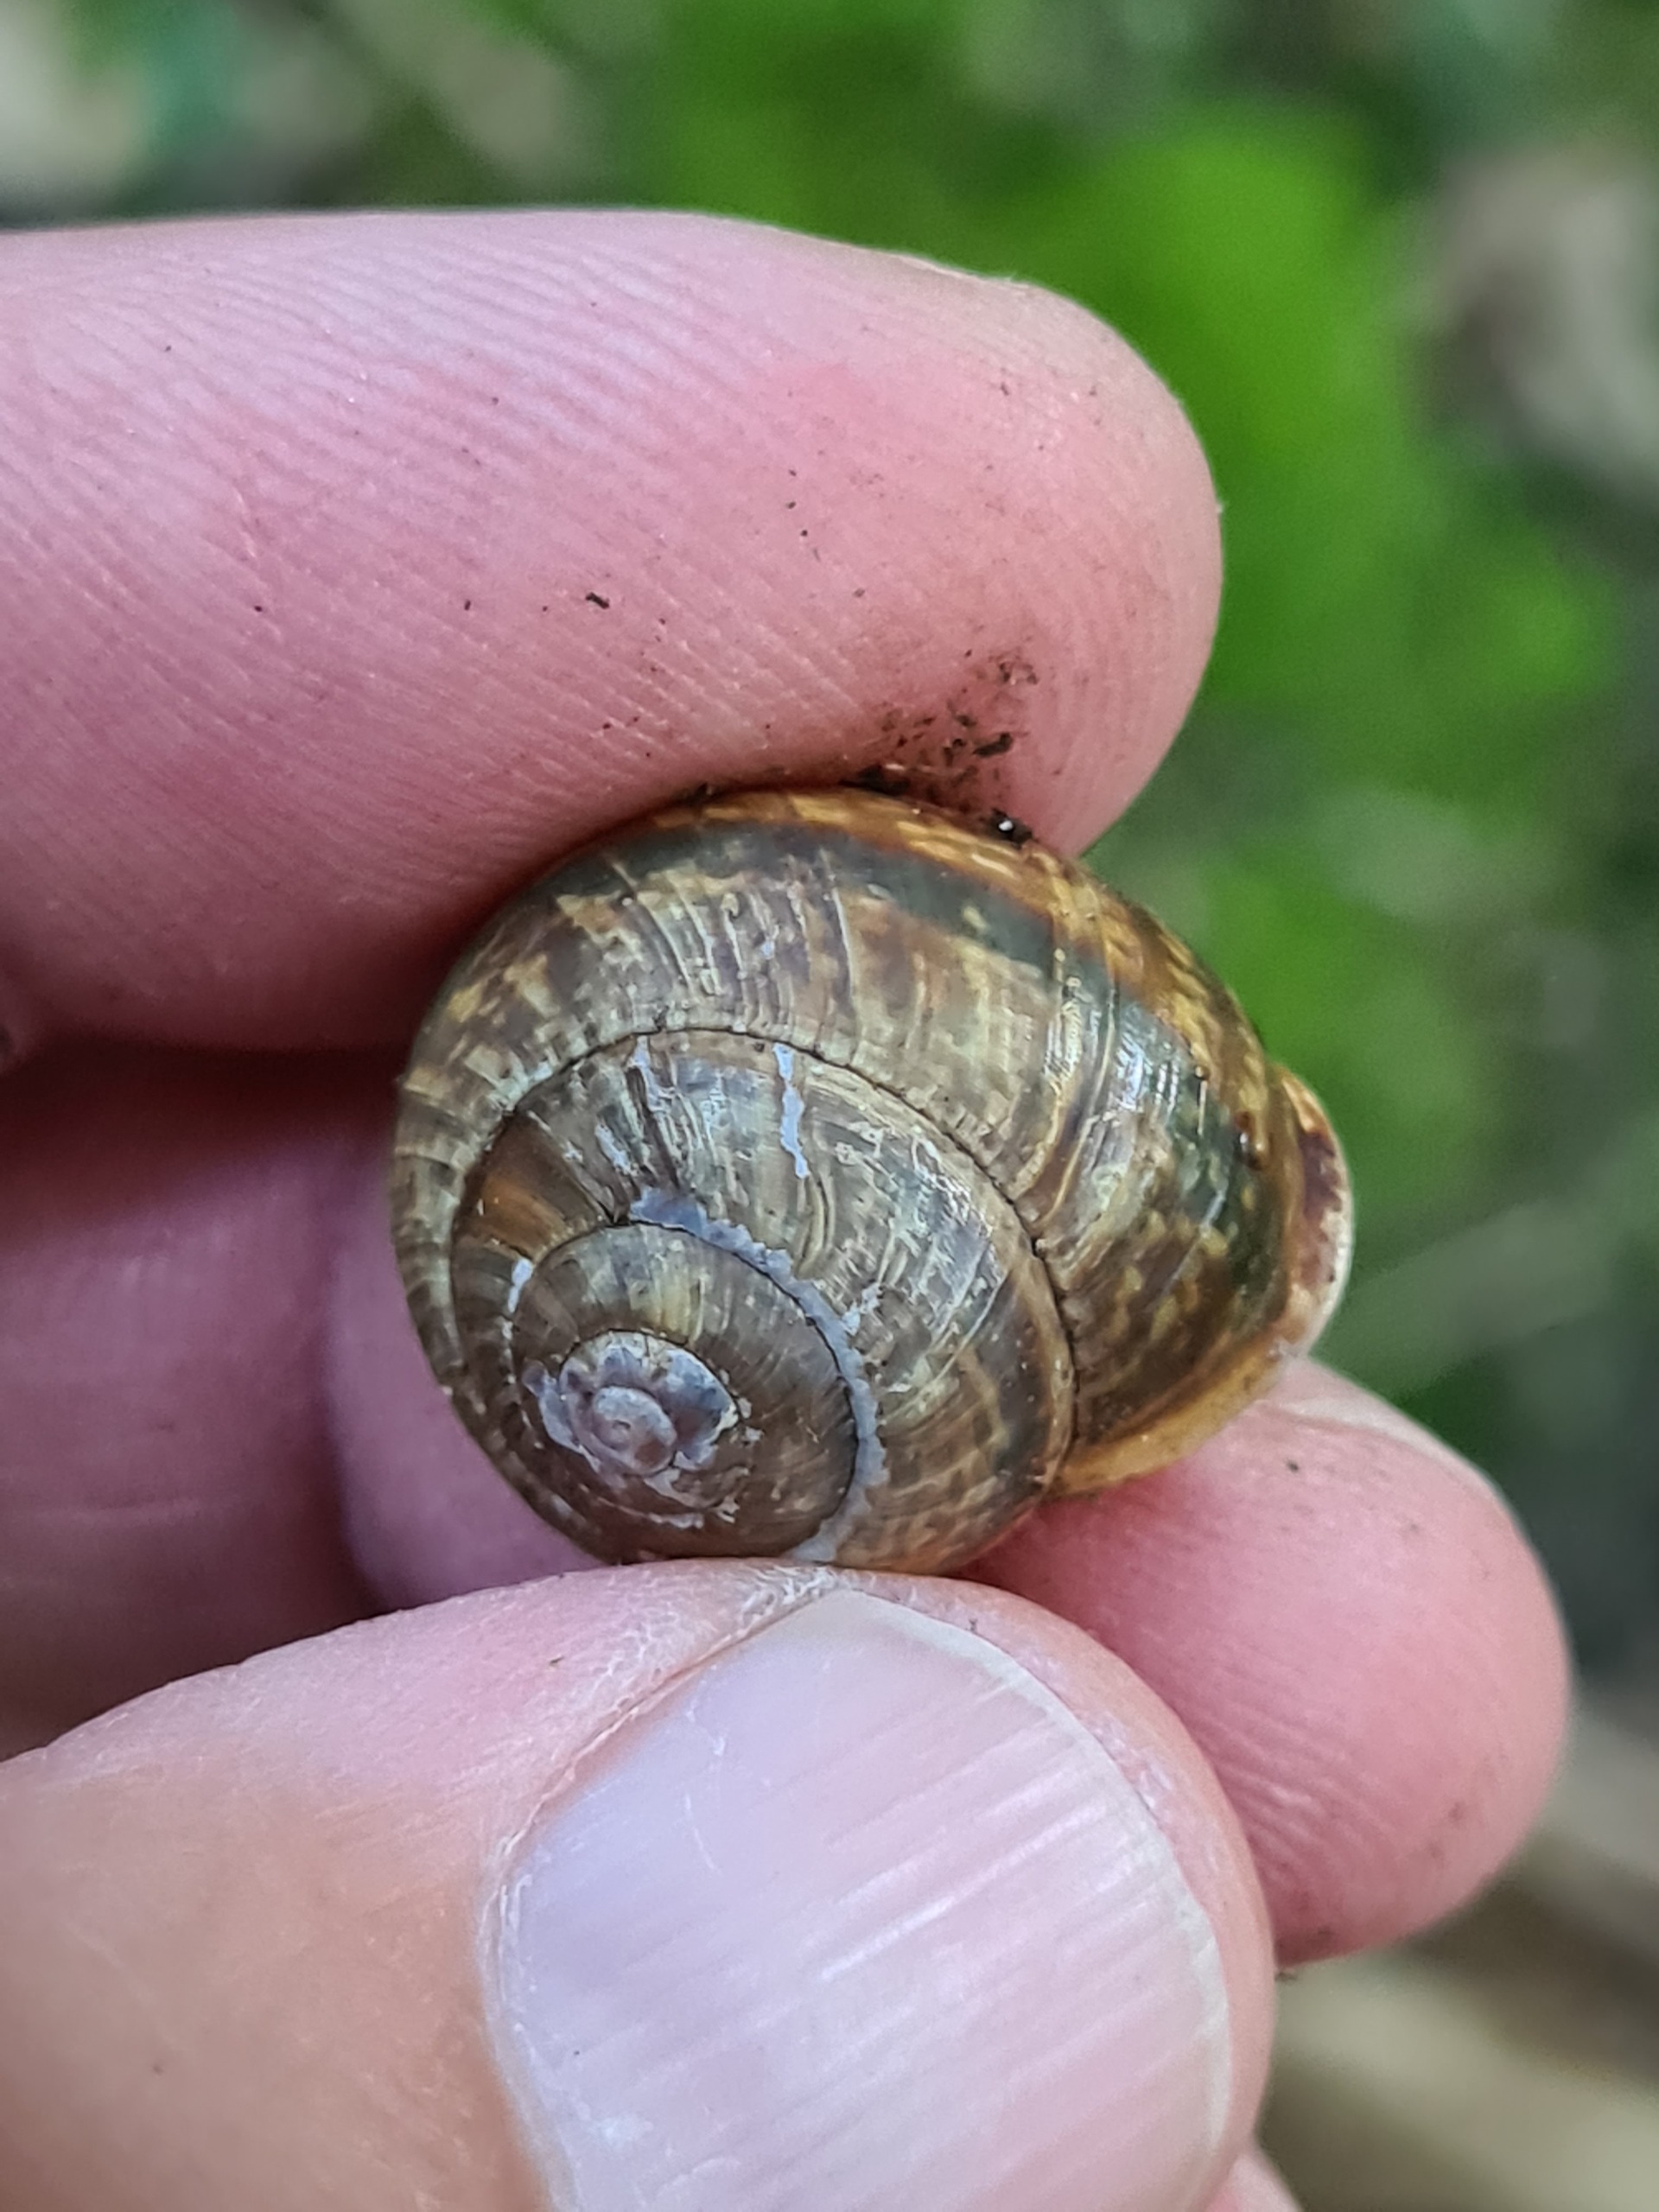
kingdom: Animalia
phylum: Mollusca
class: Gastropoda
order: Stylommatophora
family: Helicidae
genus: Arianta
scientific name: Arianta arbustorum
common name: Kratsnegl
